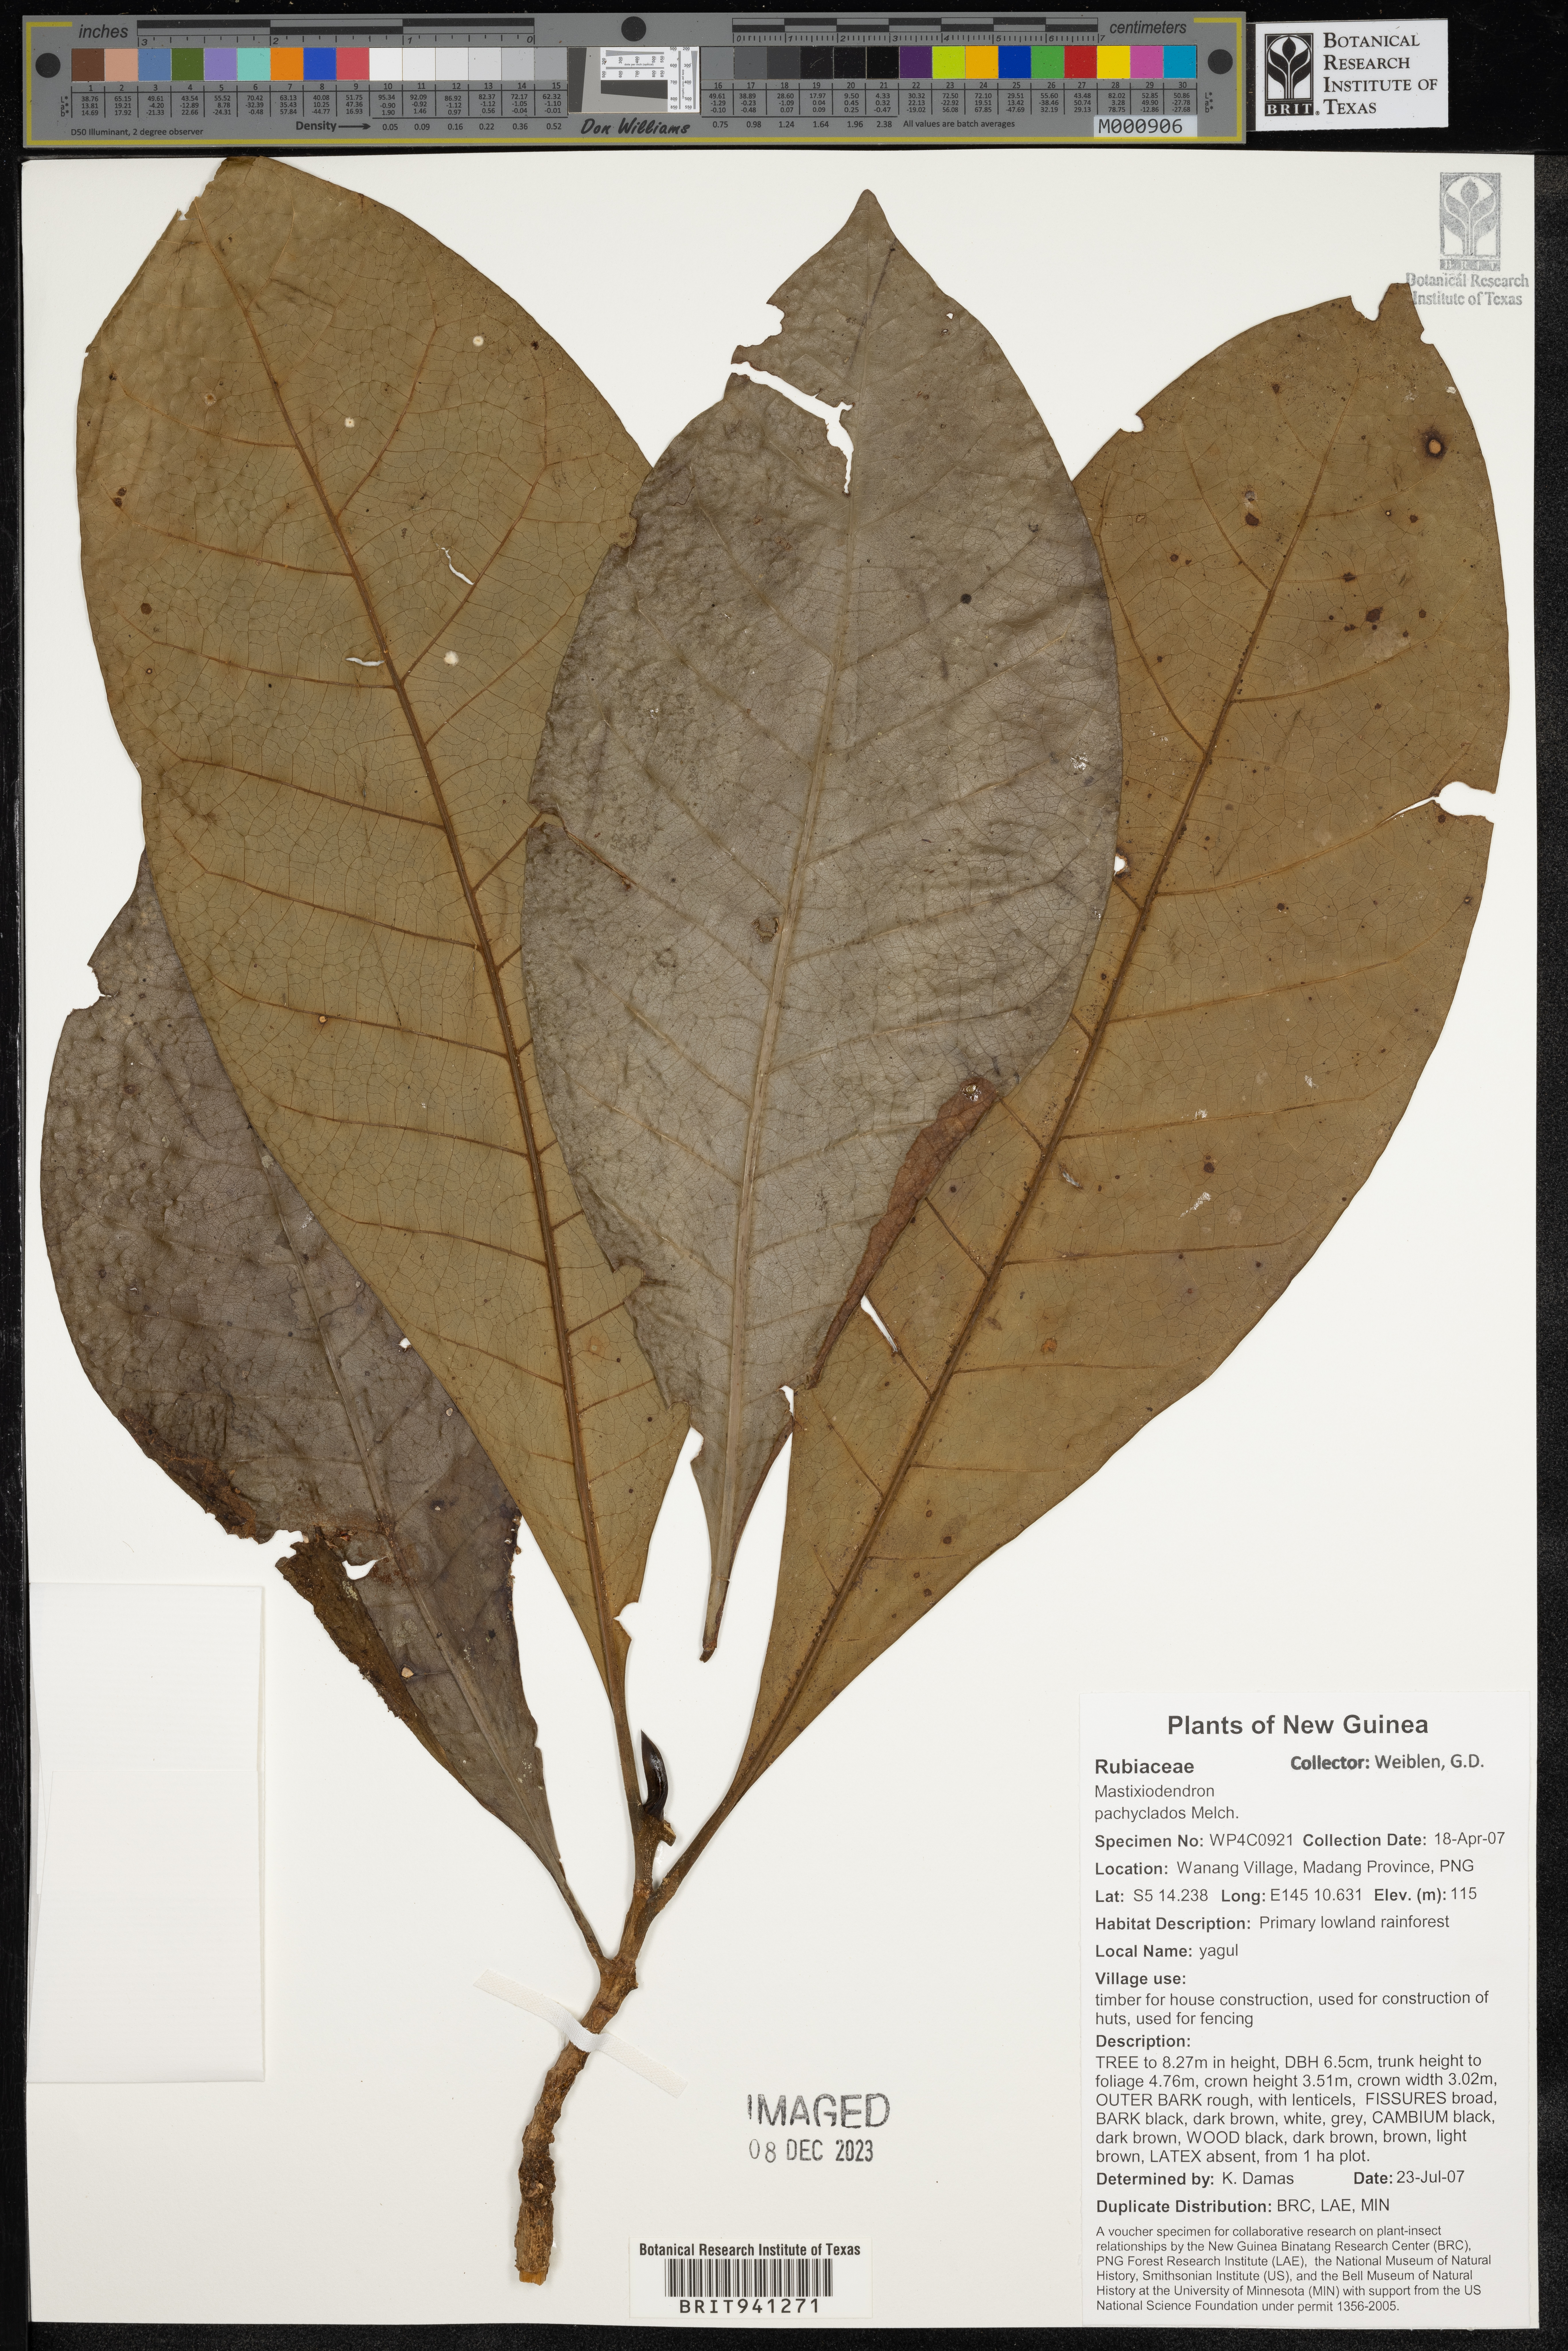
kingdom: Plantae
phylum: Tracheophyta
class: Magnoliopsida
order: Gentianales
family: Rubiaceae
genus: Mastixiodendron
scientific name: Mastixiodendron
